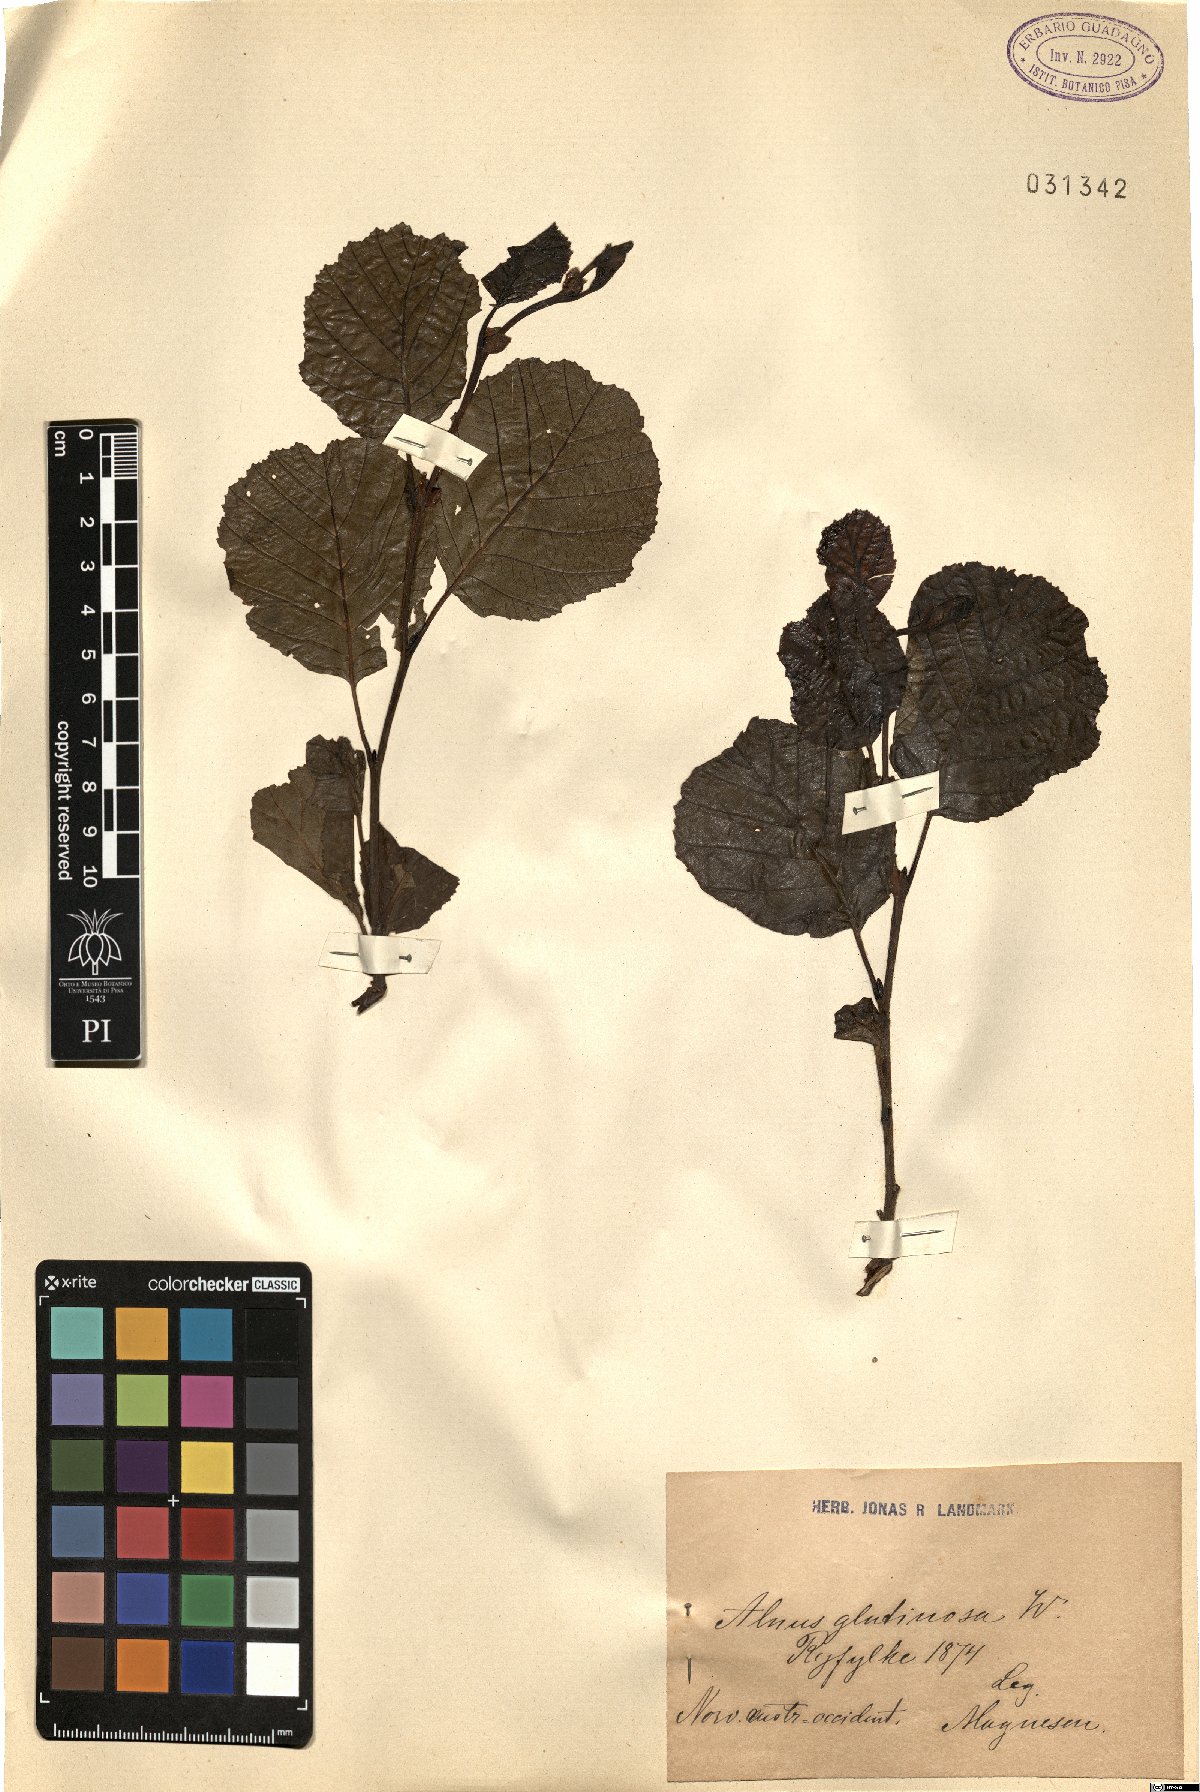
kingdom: Plantae
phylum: Tracheophyta
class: Magnoliopsida
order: Fagales
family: Betulaceae
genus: Alnus
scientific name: Alnus glutinosa
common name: Black alder
